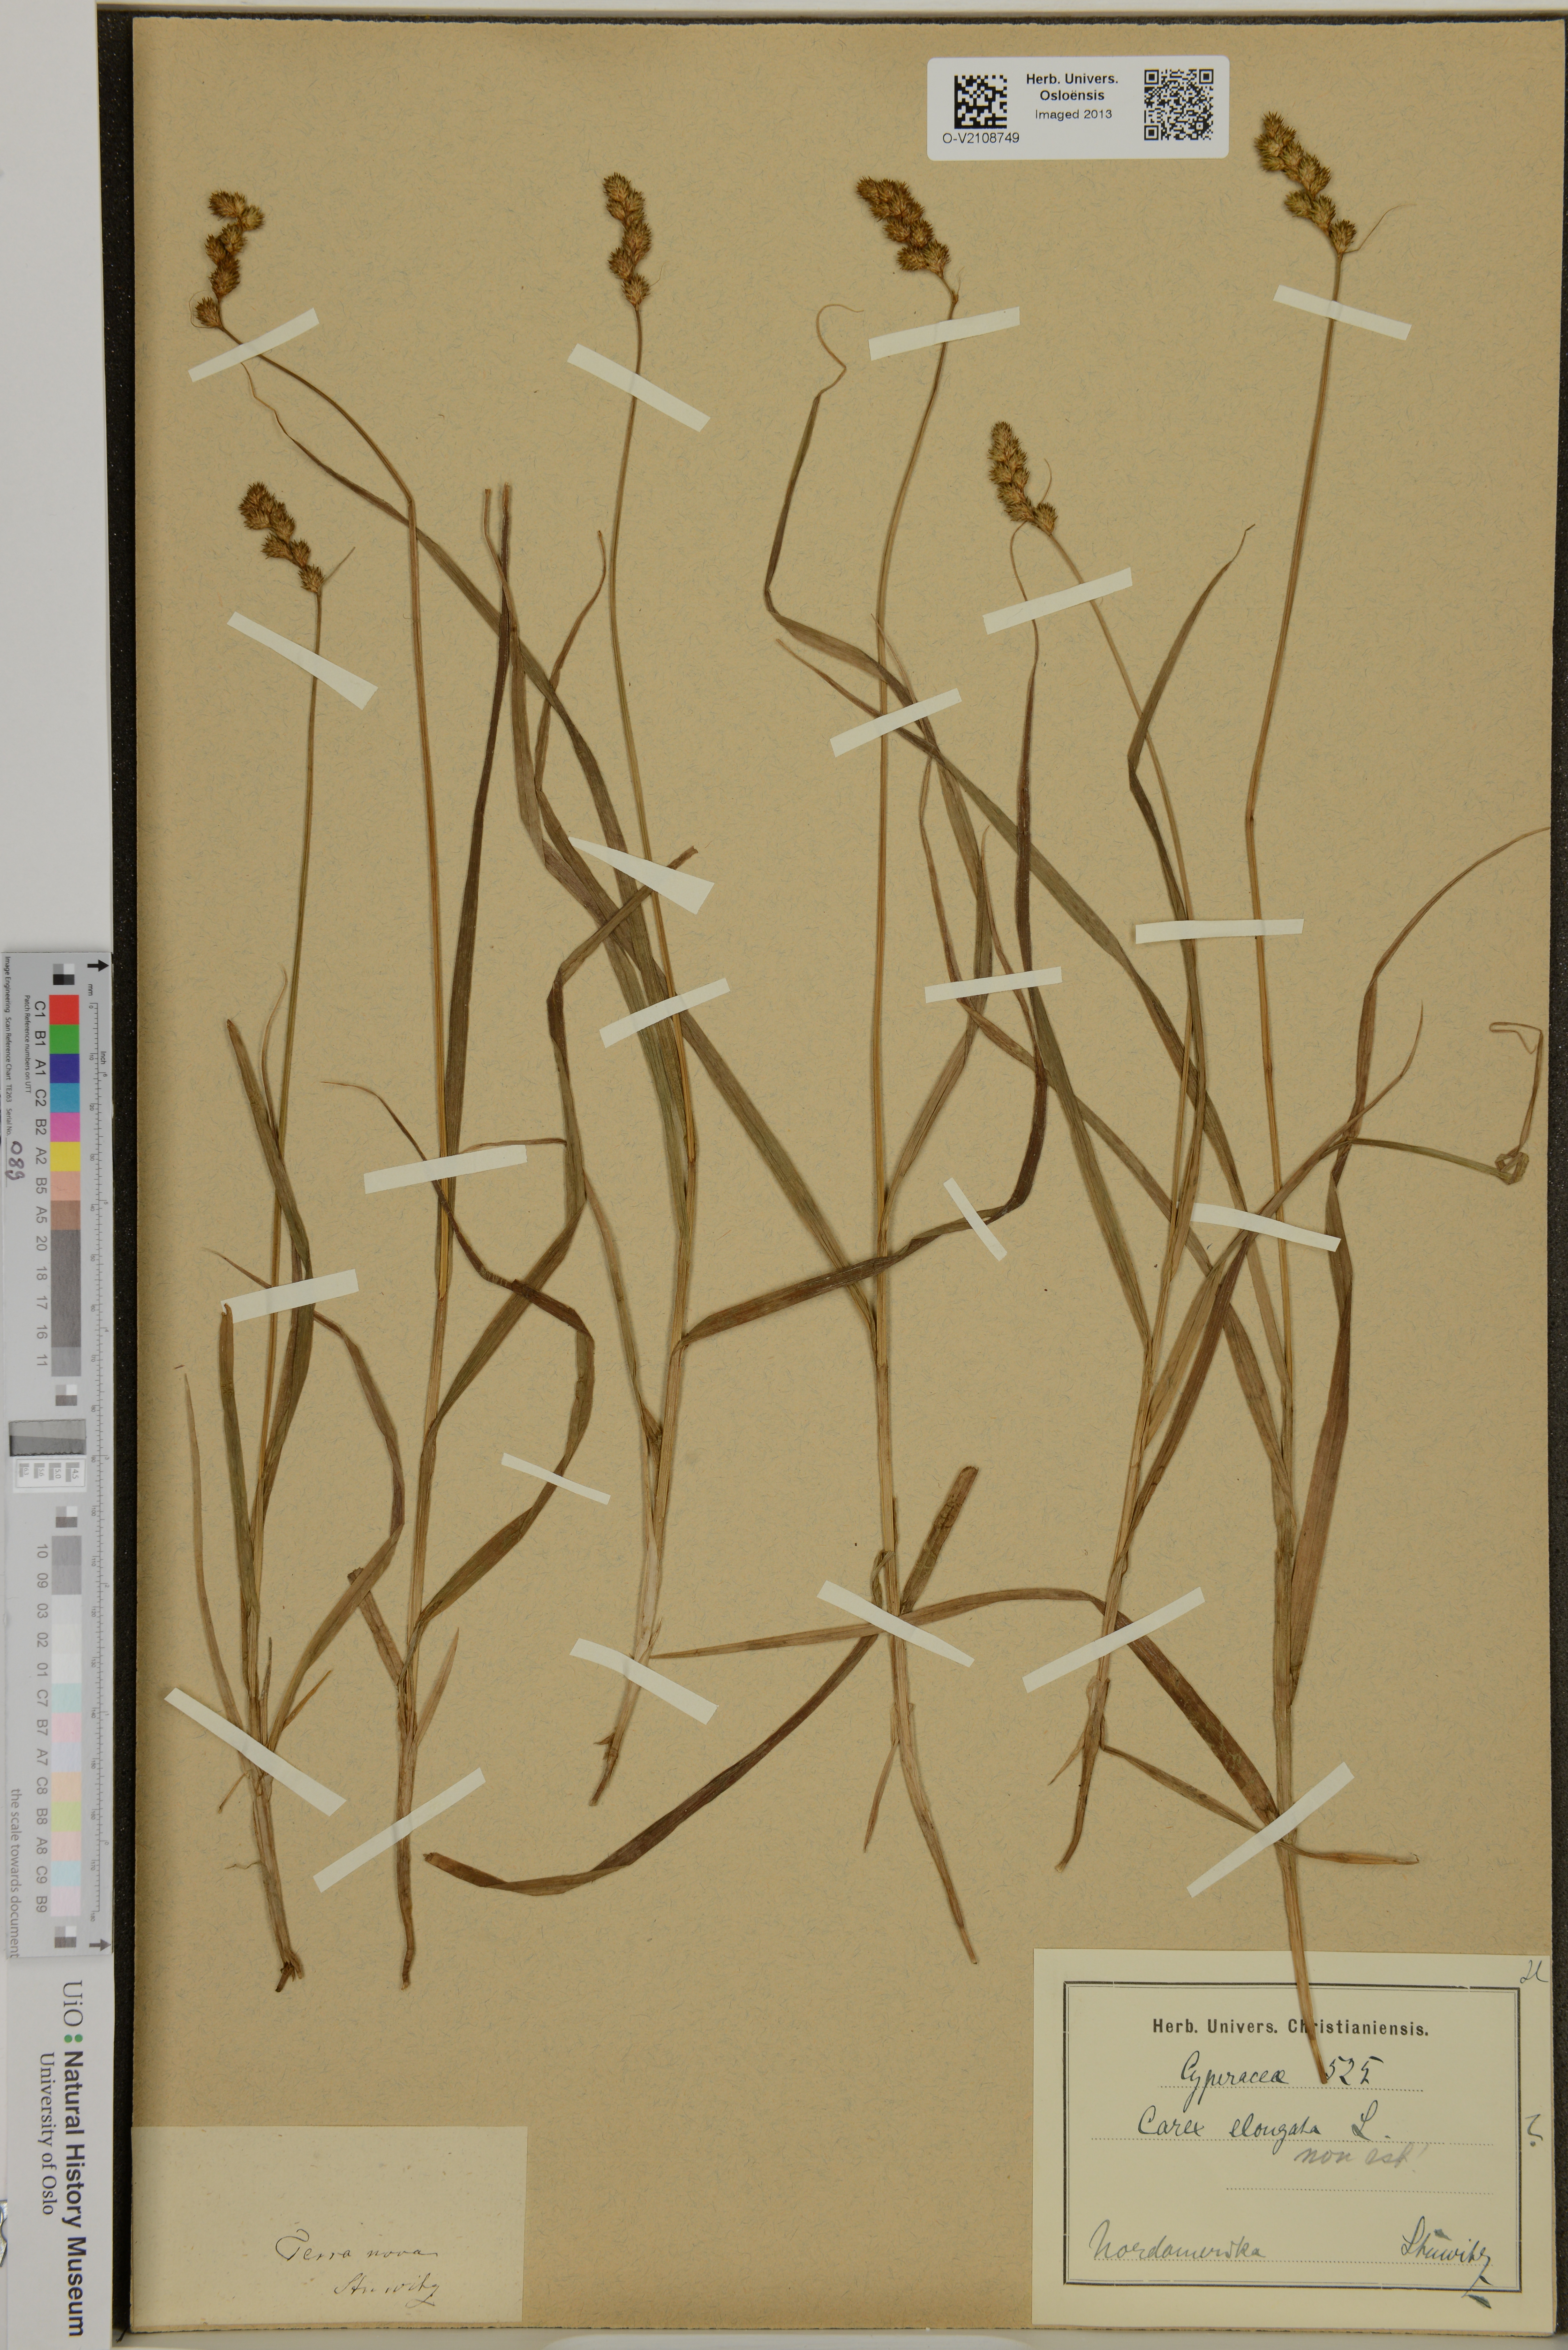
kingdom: Plantae
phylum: Tracheophyta
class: Liliopsida
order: Poales
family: Cyperaceae
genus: Carex
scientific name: Carex elongata
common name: Elongated sedge
